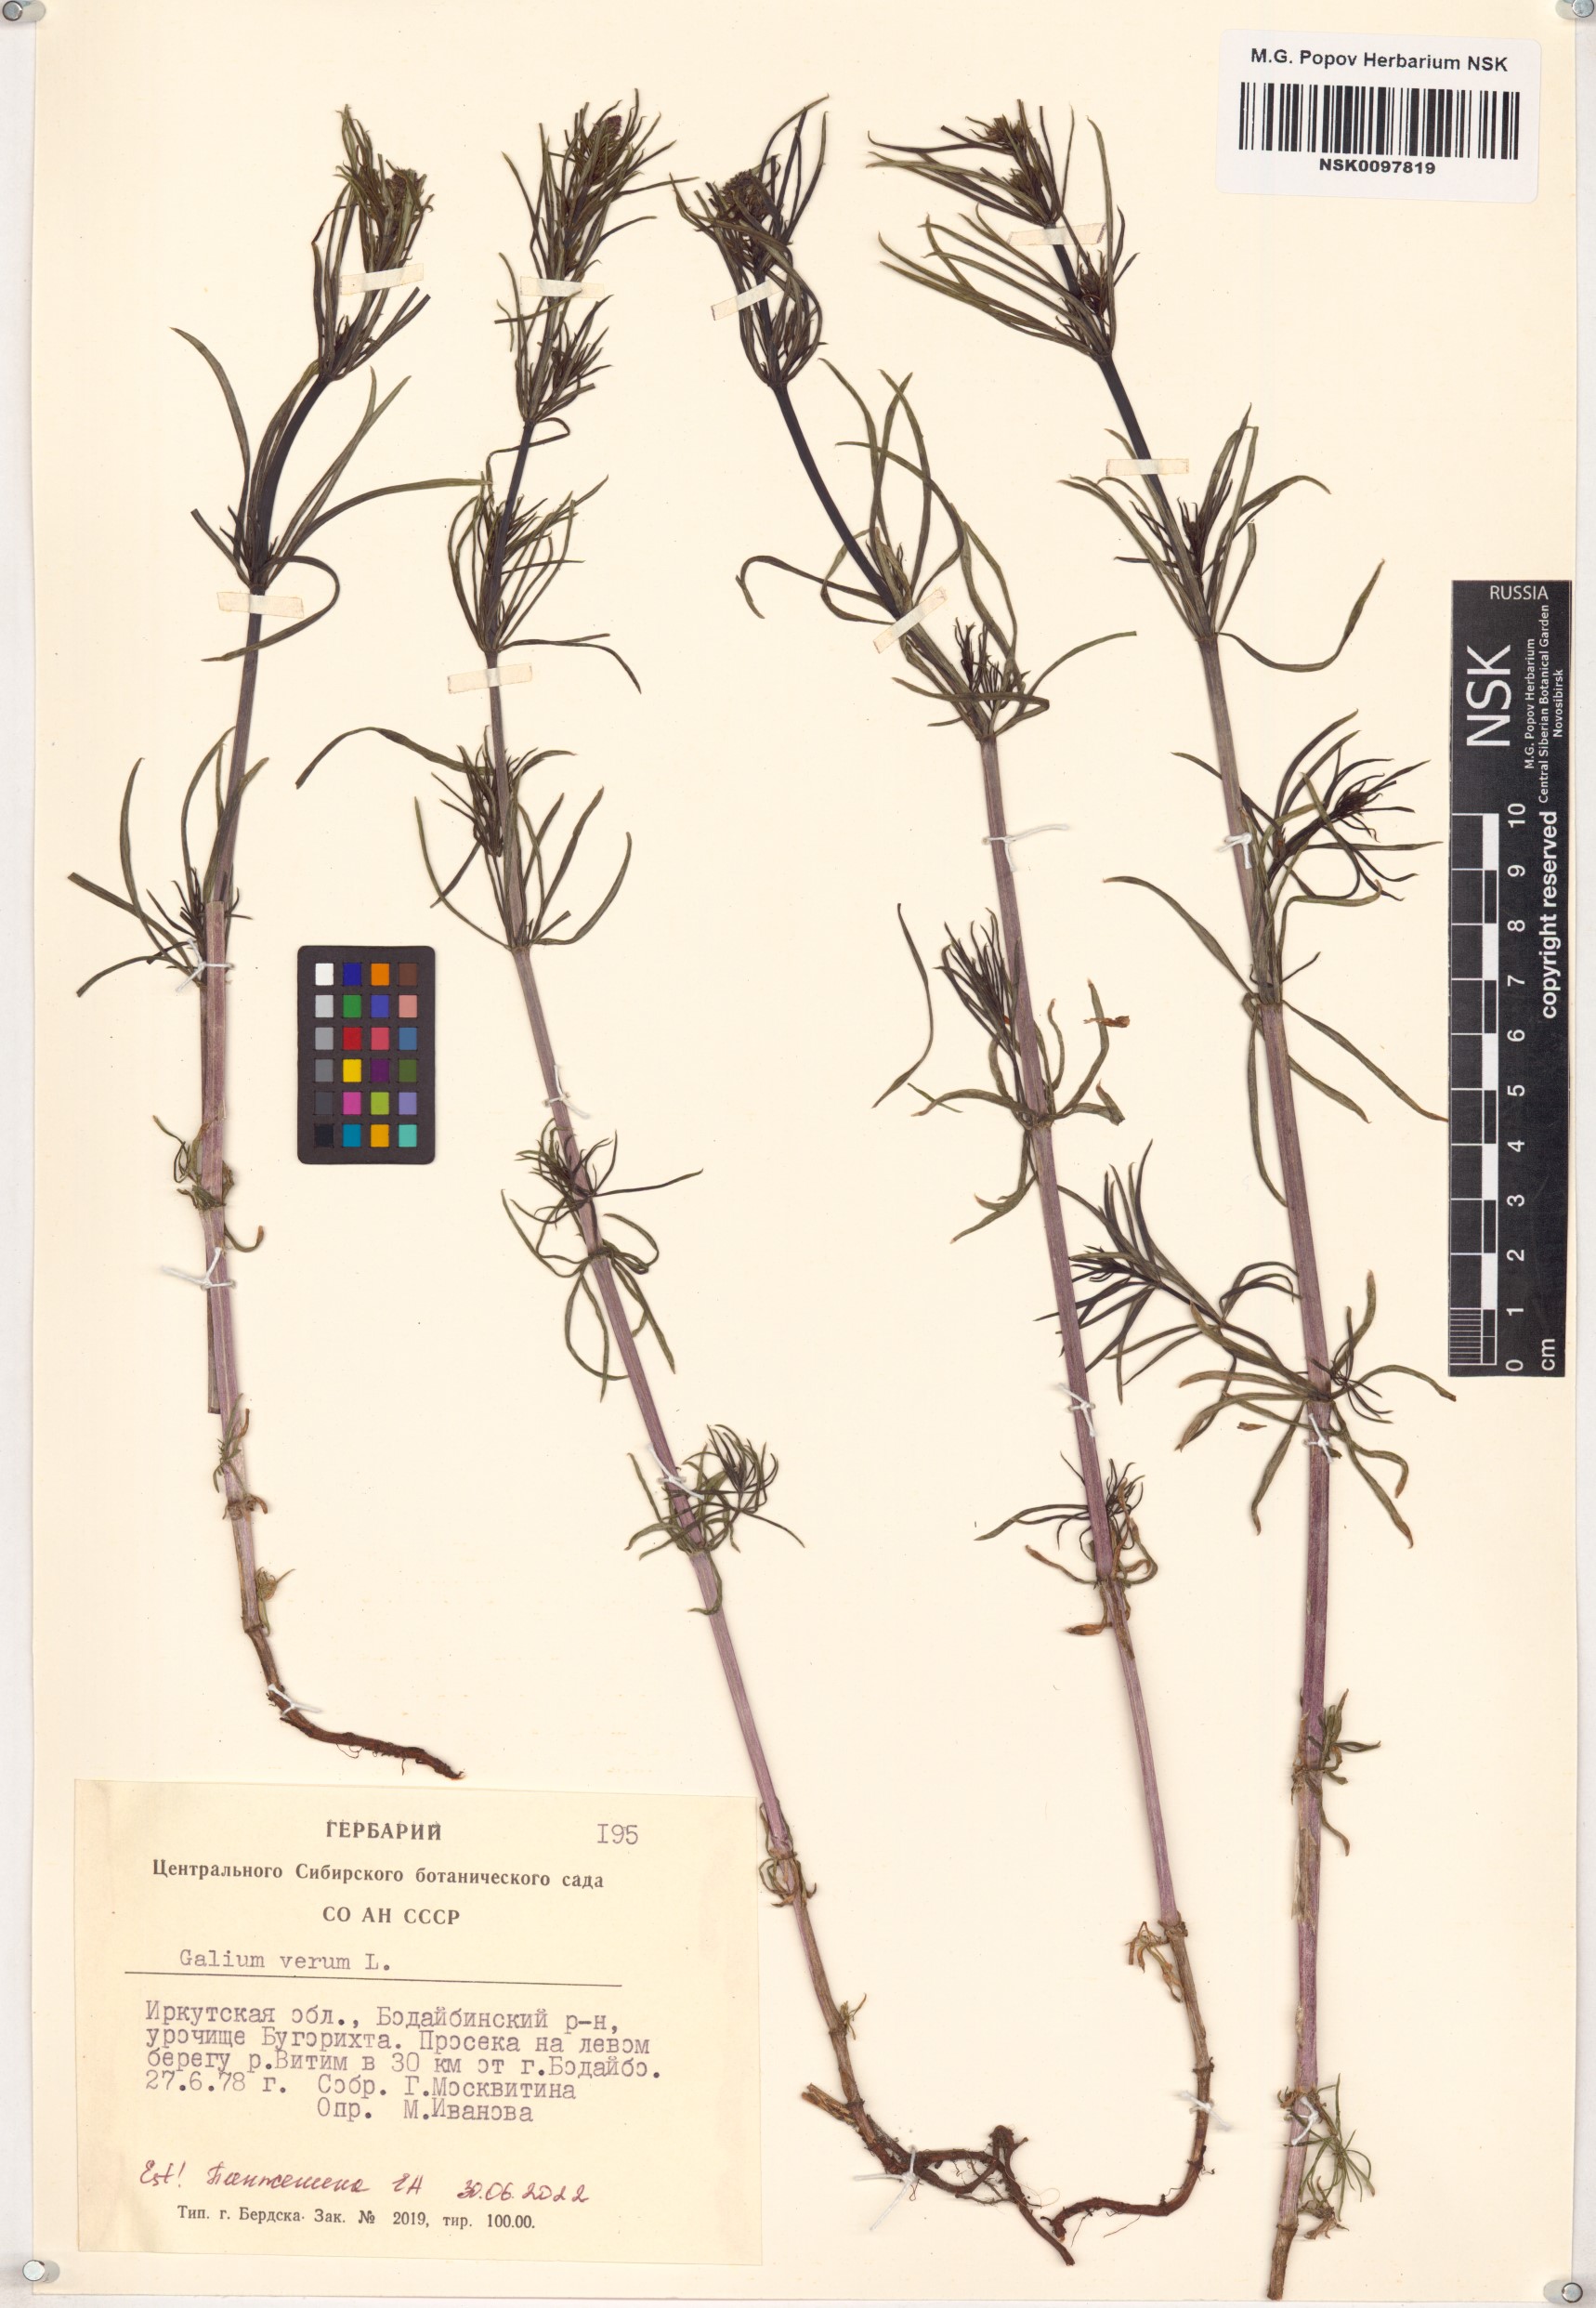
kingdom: Plantae
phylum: Tracheophyta
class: Magnoliopsida
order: Gentianales
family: Rubiaceae
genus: Galium
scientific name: Galium verum
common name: Lady's bedstraw
